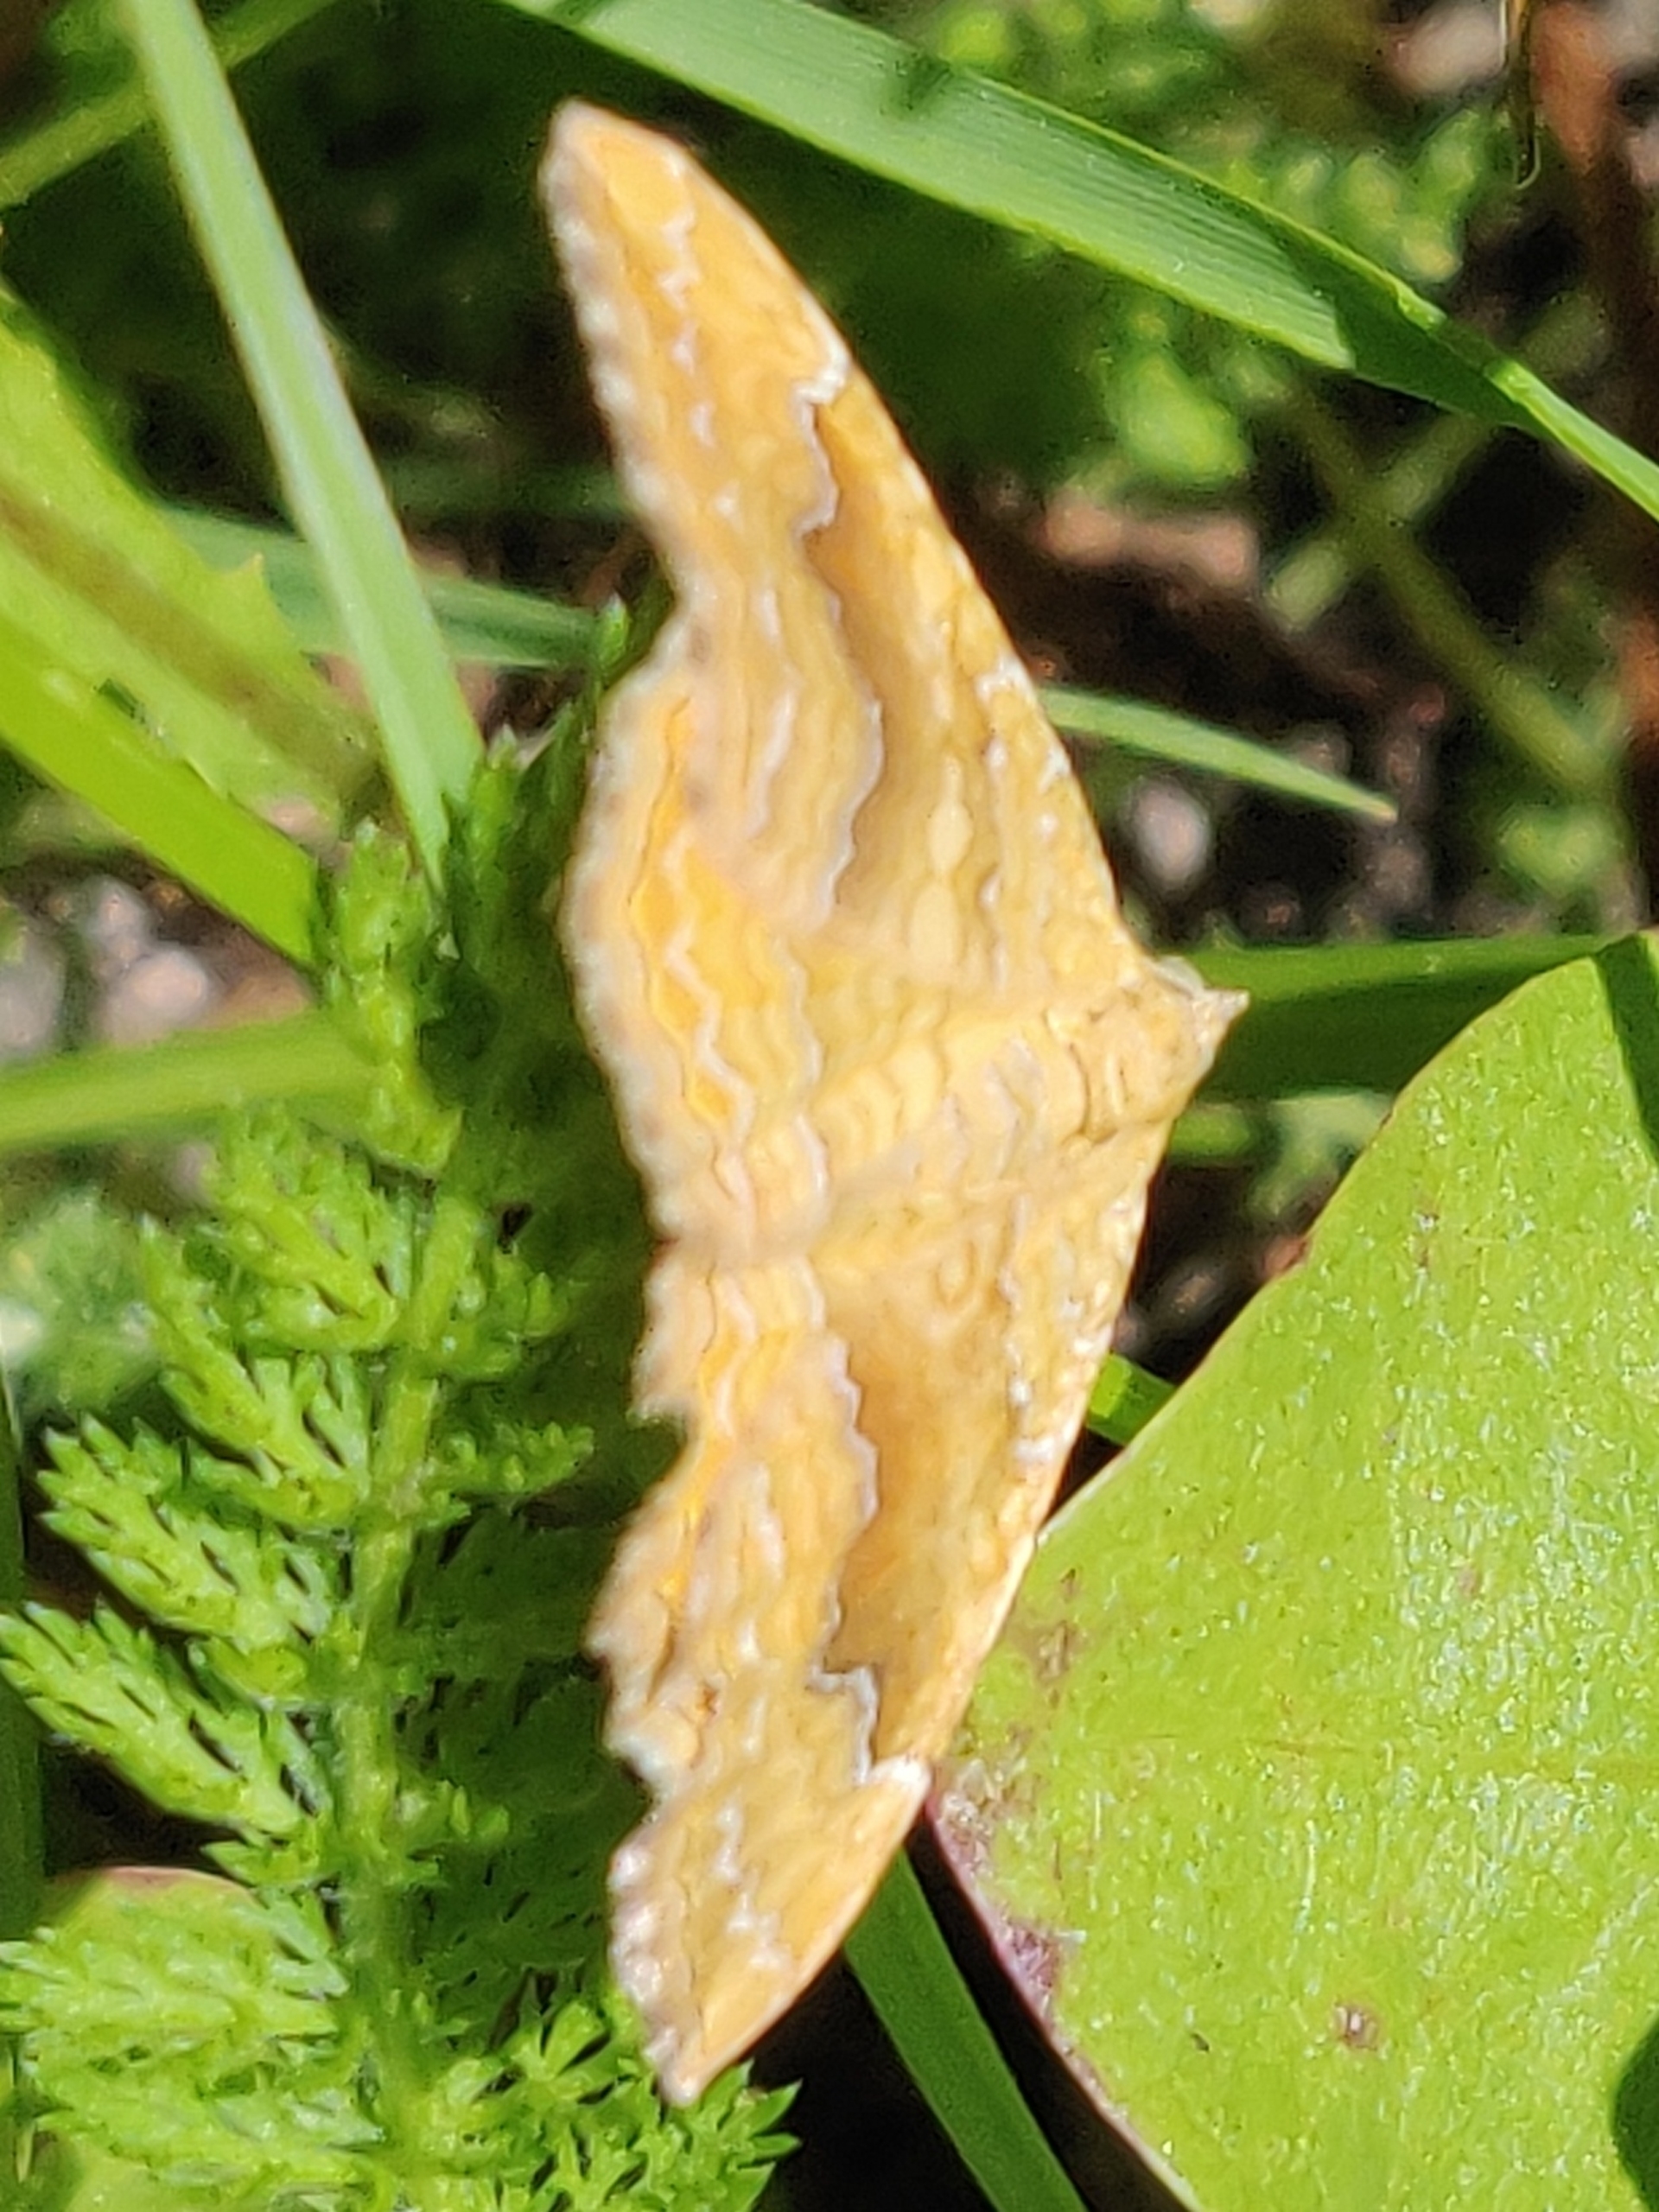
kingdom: Animalia
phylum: Arthropoda
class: Insecta
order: Lepidoptera
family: Geometridae
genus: Camptogramma
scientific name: Camptogramma bilineata
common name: Okkergul bladmåler
